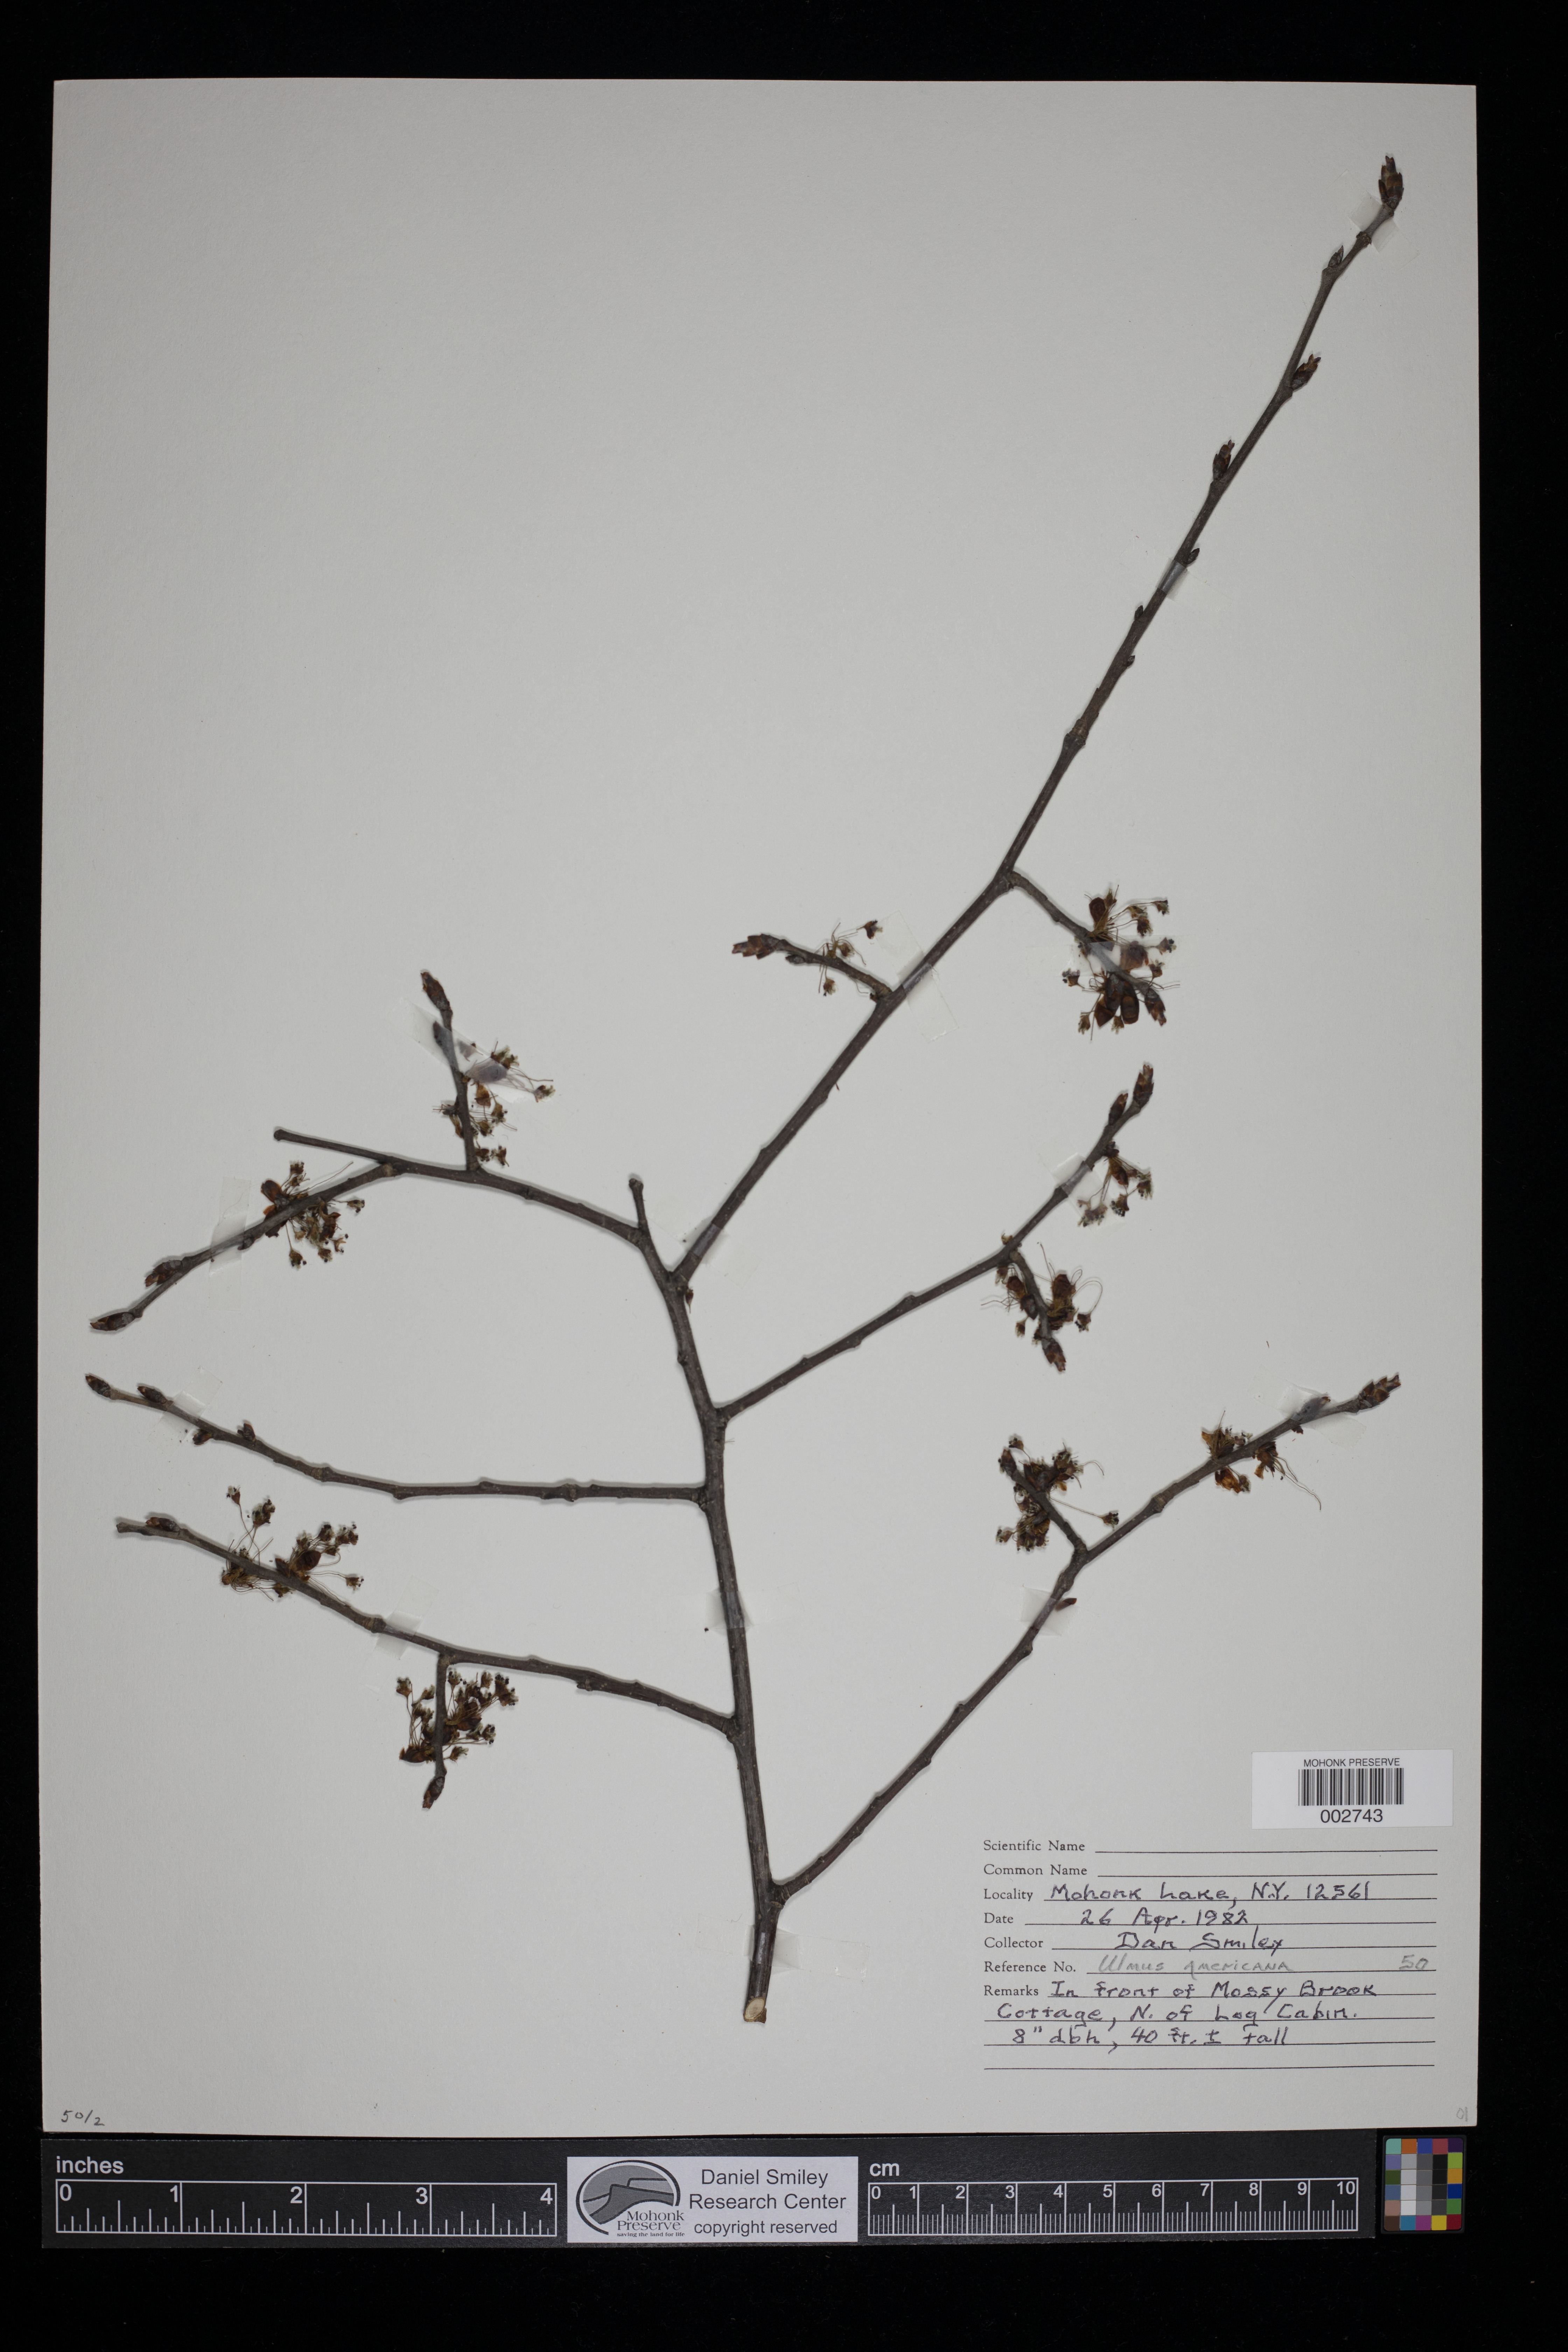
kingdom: Plantae
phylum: Tracheophyta
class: Magnoliopsida
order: Rosales
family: Ulmaceae
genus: Ulmus
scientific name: Ulmus americana
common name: American elm
